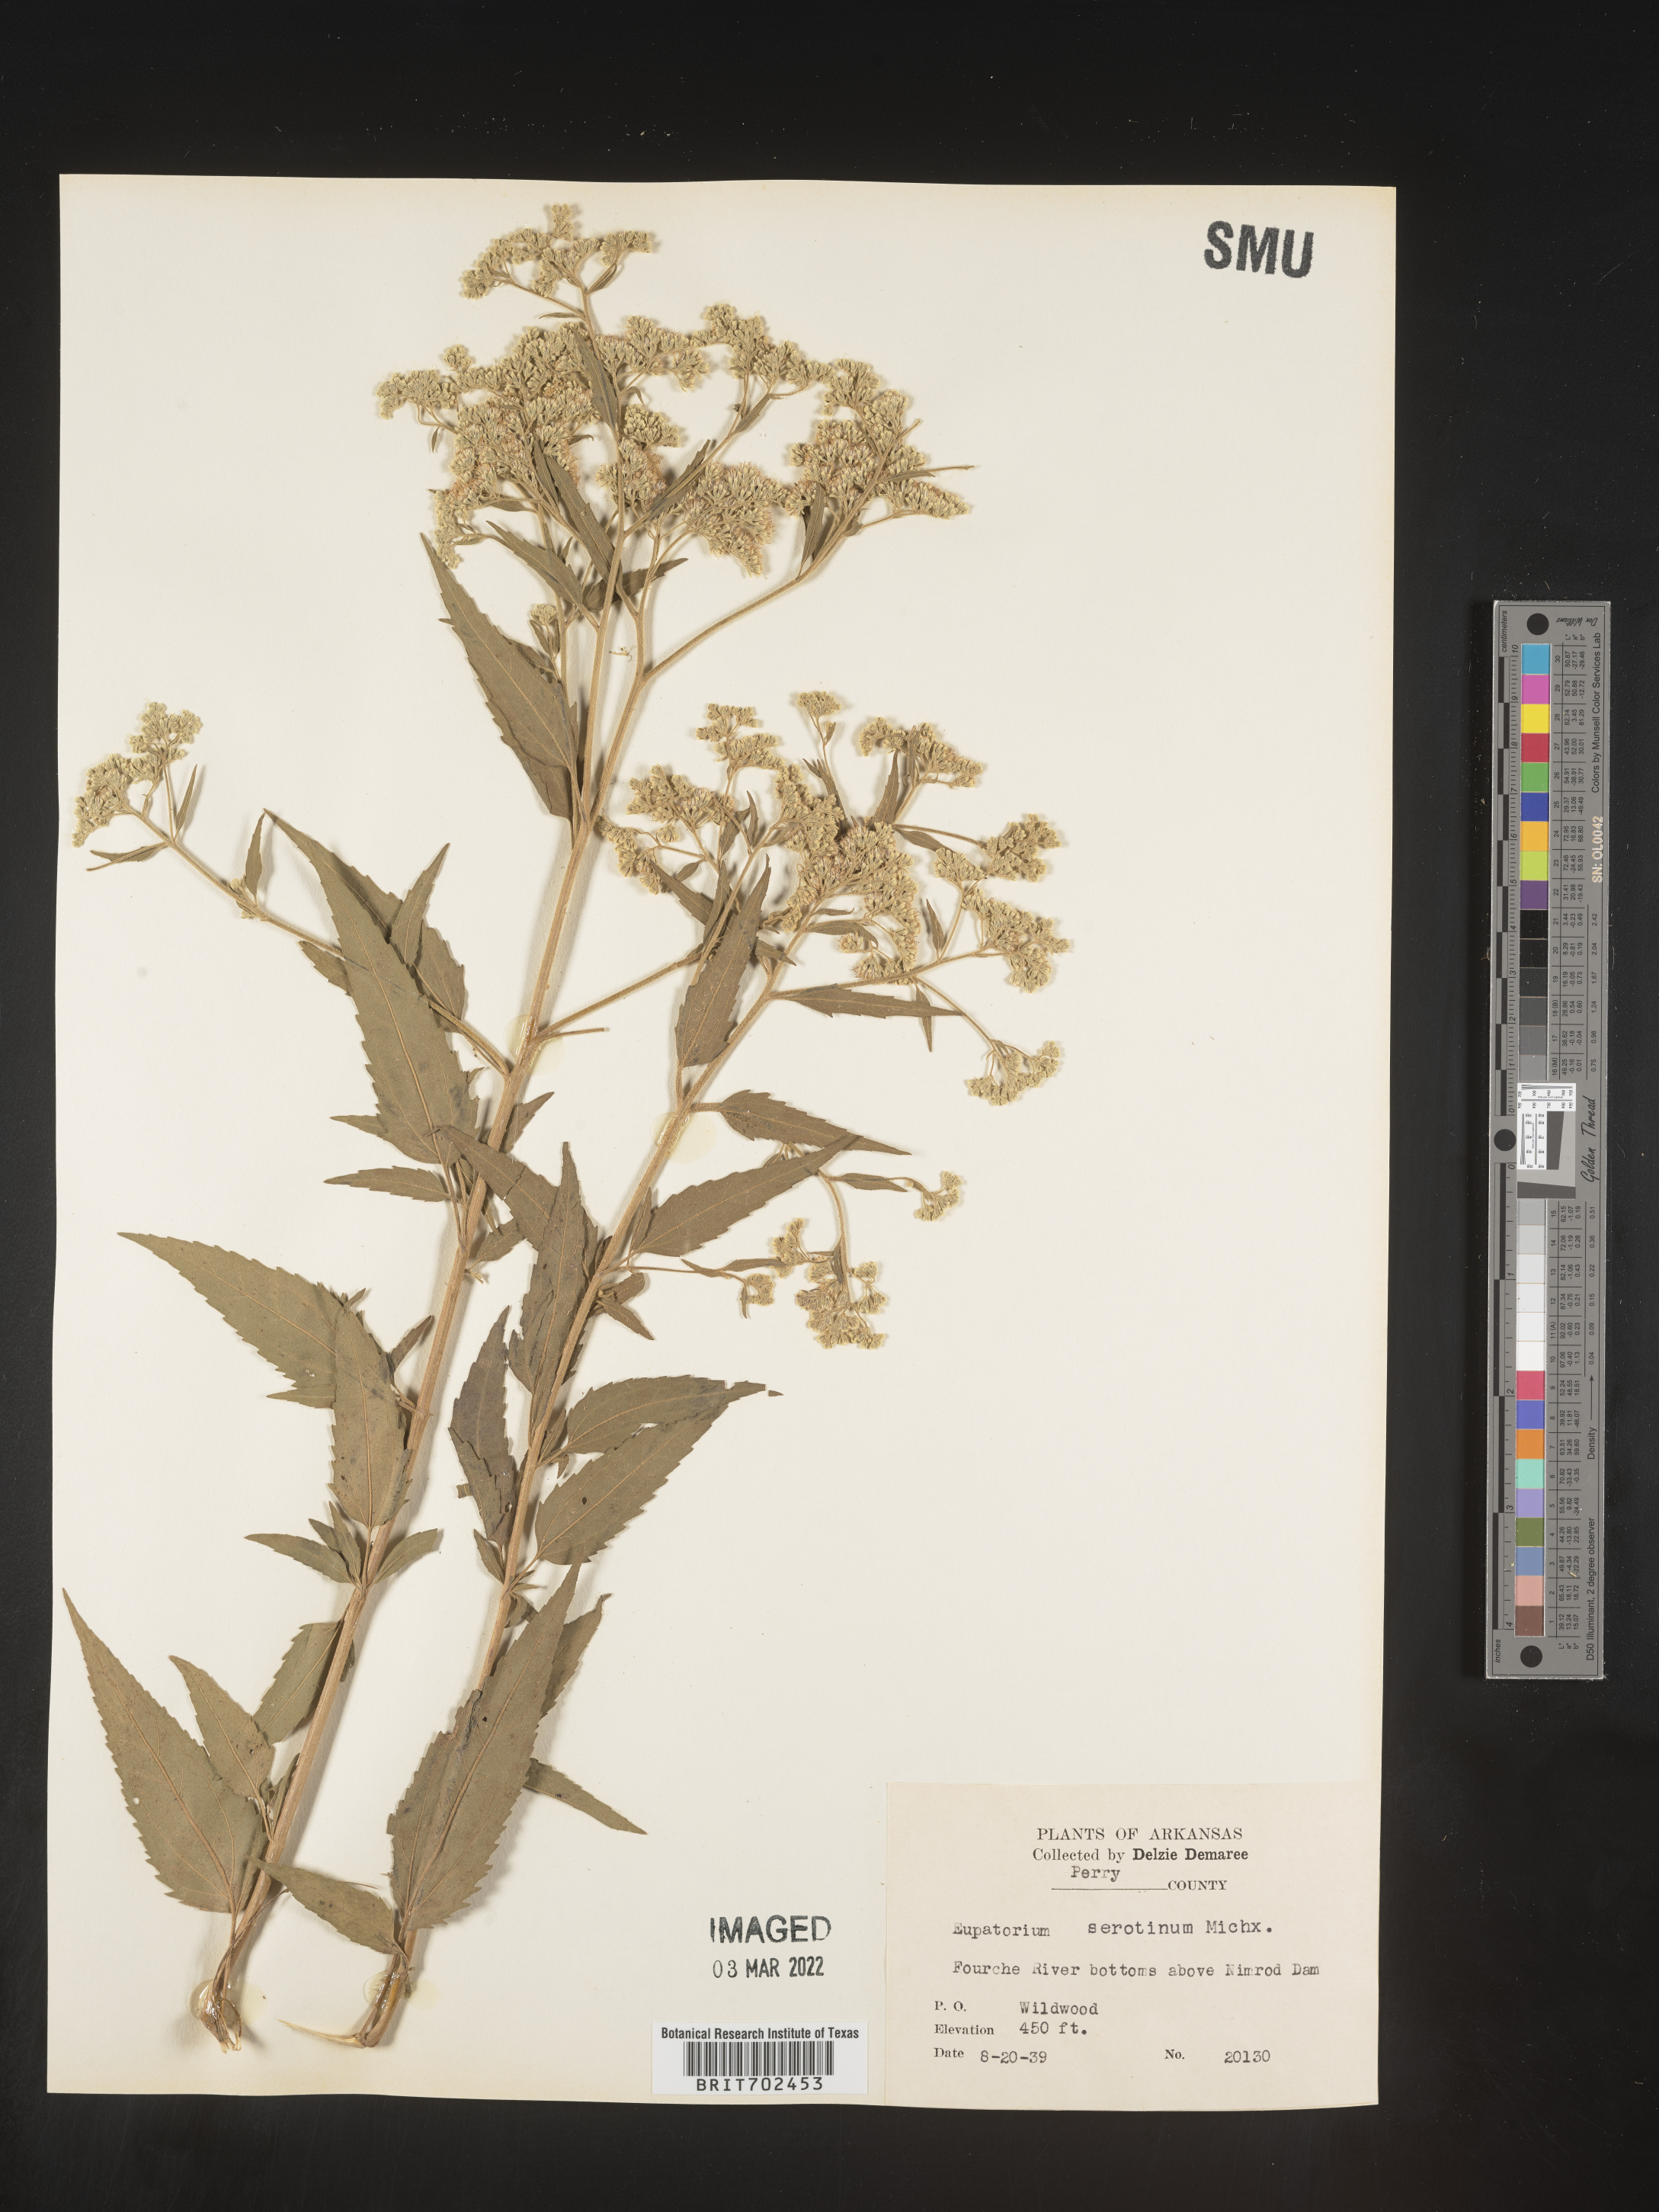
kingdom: Plantae
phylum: Tracheophyta
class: Magnoliopsida
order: Asterales
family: Asteraceae
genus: Eupatorium
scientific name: Eupatorium serotinum
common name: Late boneset
